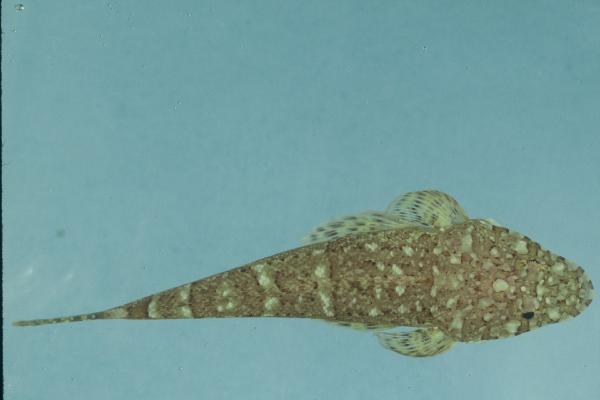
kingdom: Animalia
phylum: Chordata
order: Scorpaeniformes
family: Platycephalidae
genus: Sunagocia
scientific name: Sunagocia otaitensis
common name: Fringelip flathead
